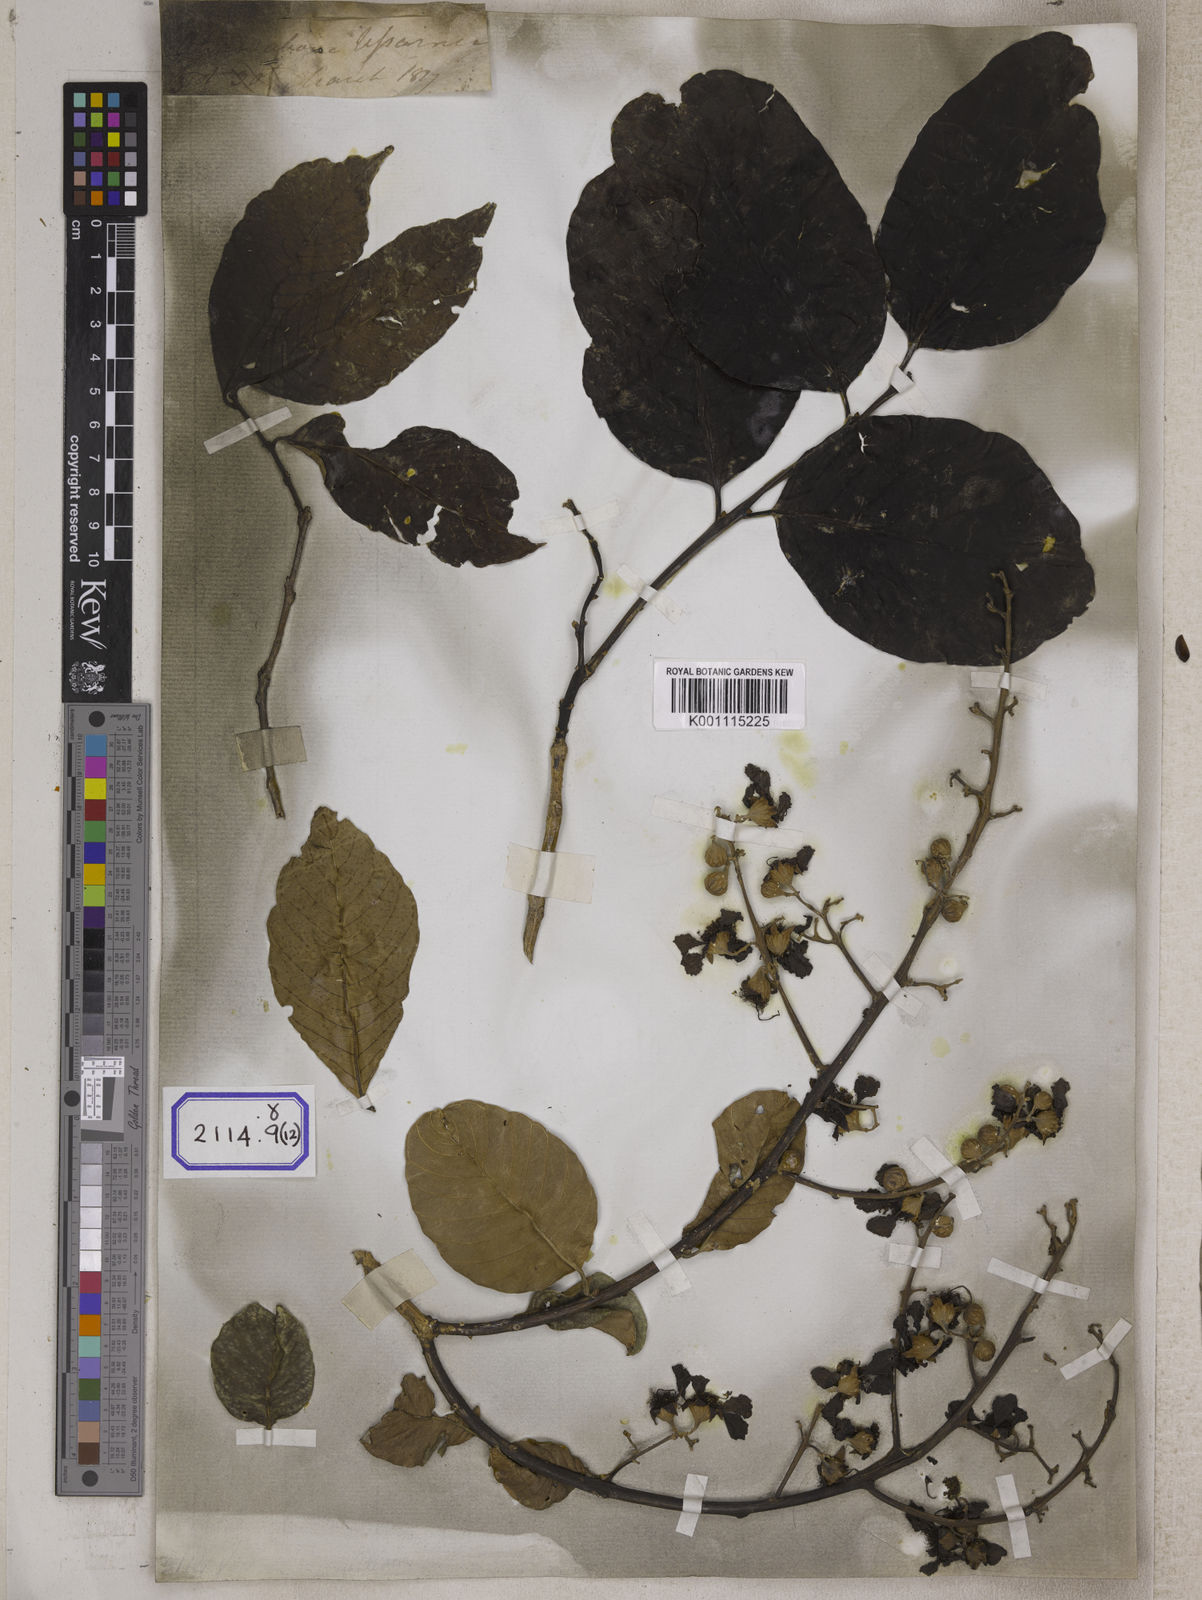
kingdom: Plantae
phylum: Tracheophyta
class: Magnoliopsida
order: Myrtales
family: Lythraceae
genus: Lagerstroemia
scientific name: Lagerstroemia
